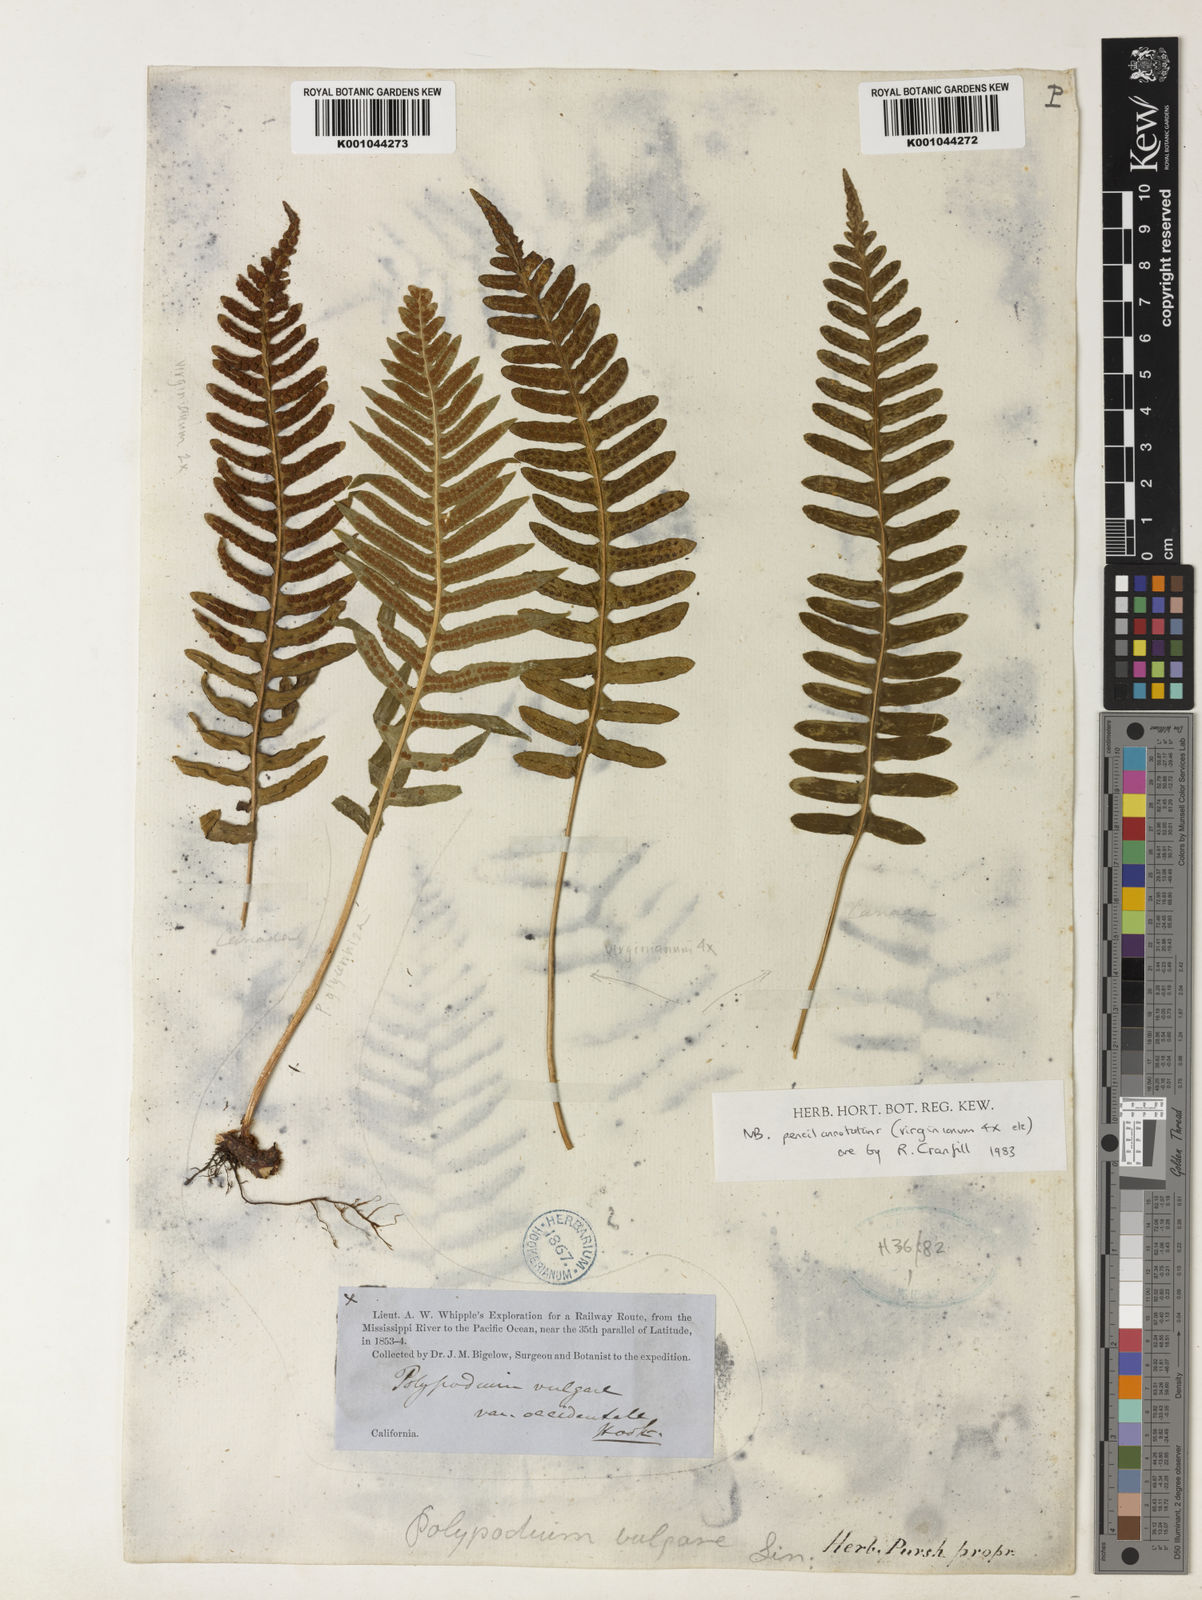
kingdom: Plantae
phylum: Tracheophyta
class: Polypodiopsida
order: Polypodiales
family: Polypodiaceae
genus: Polypodium
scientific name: Polypodium virginianum
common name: American wall fern
